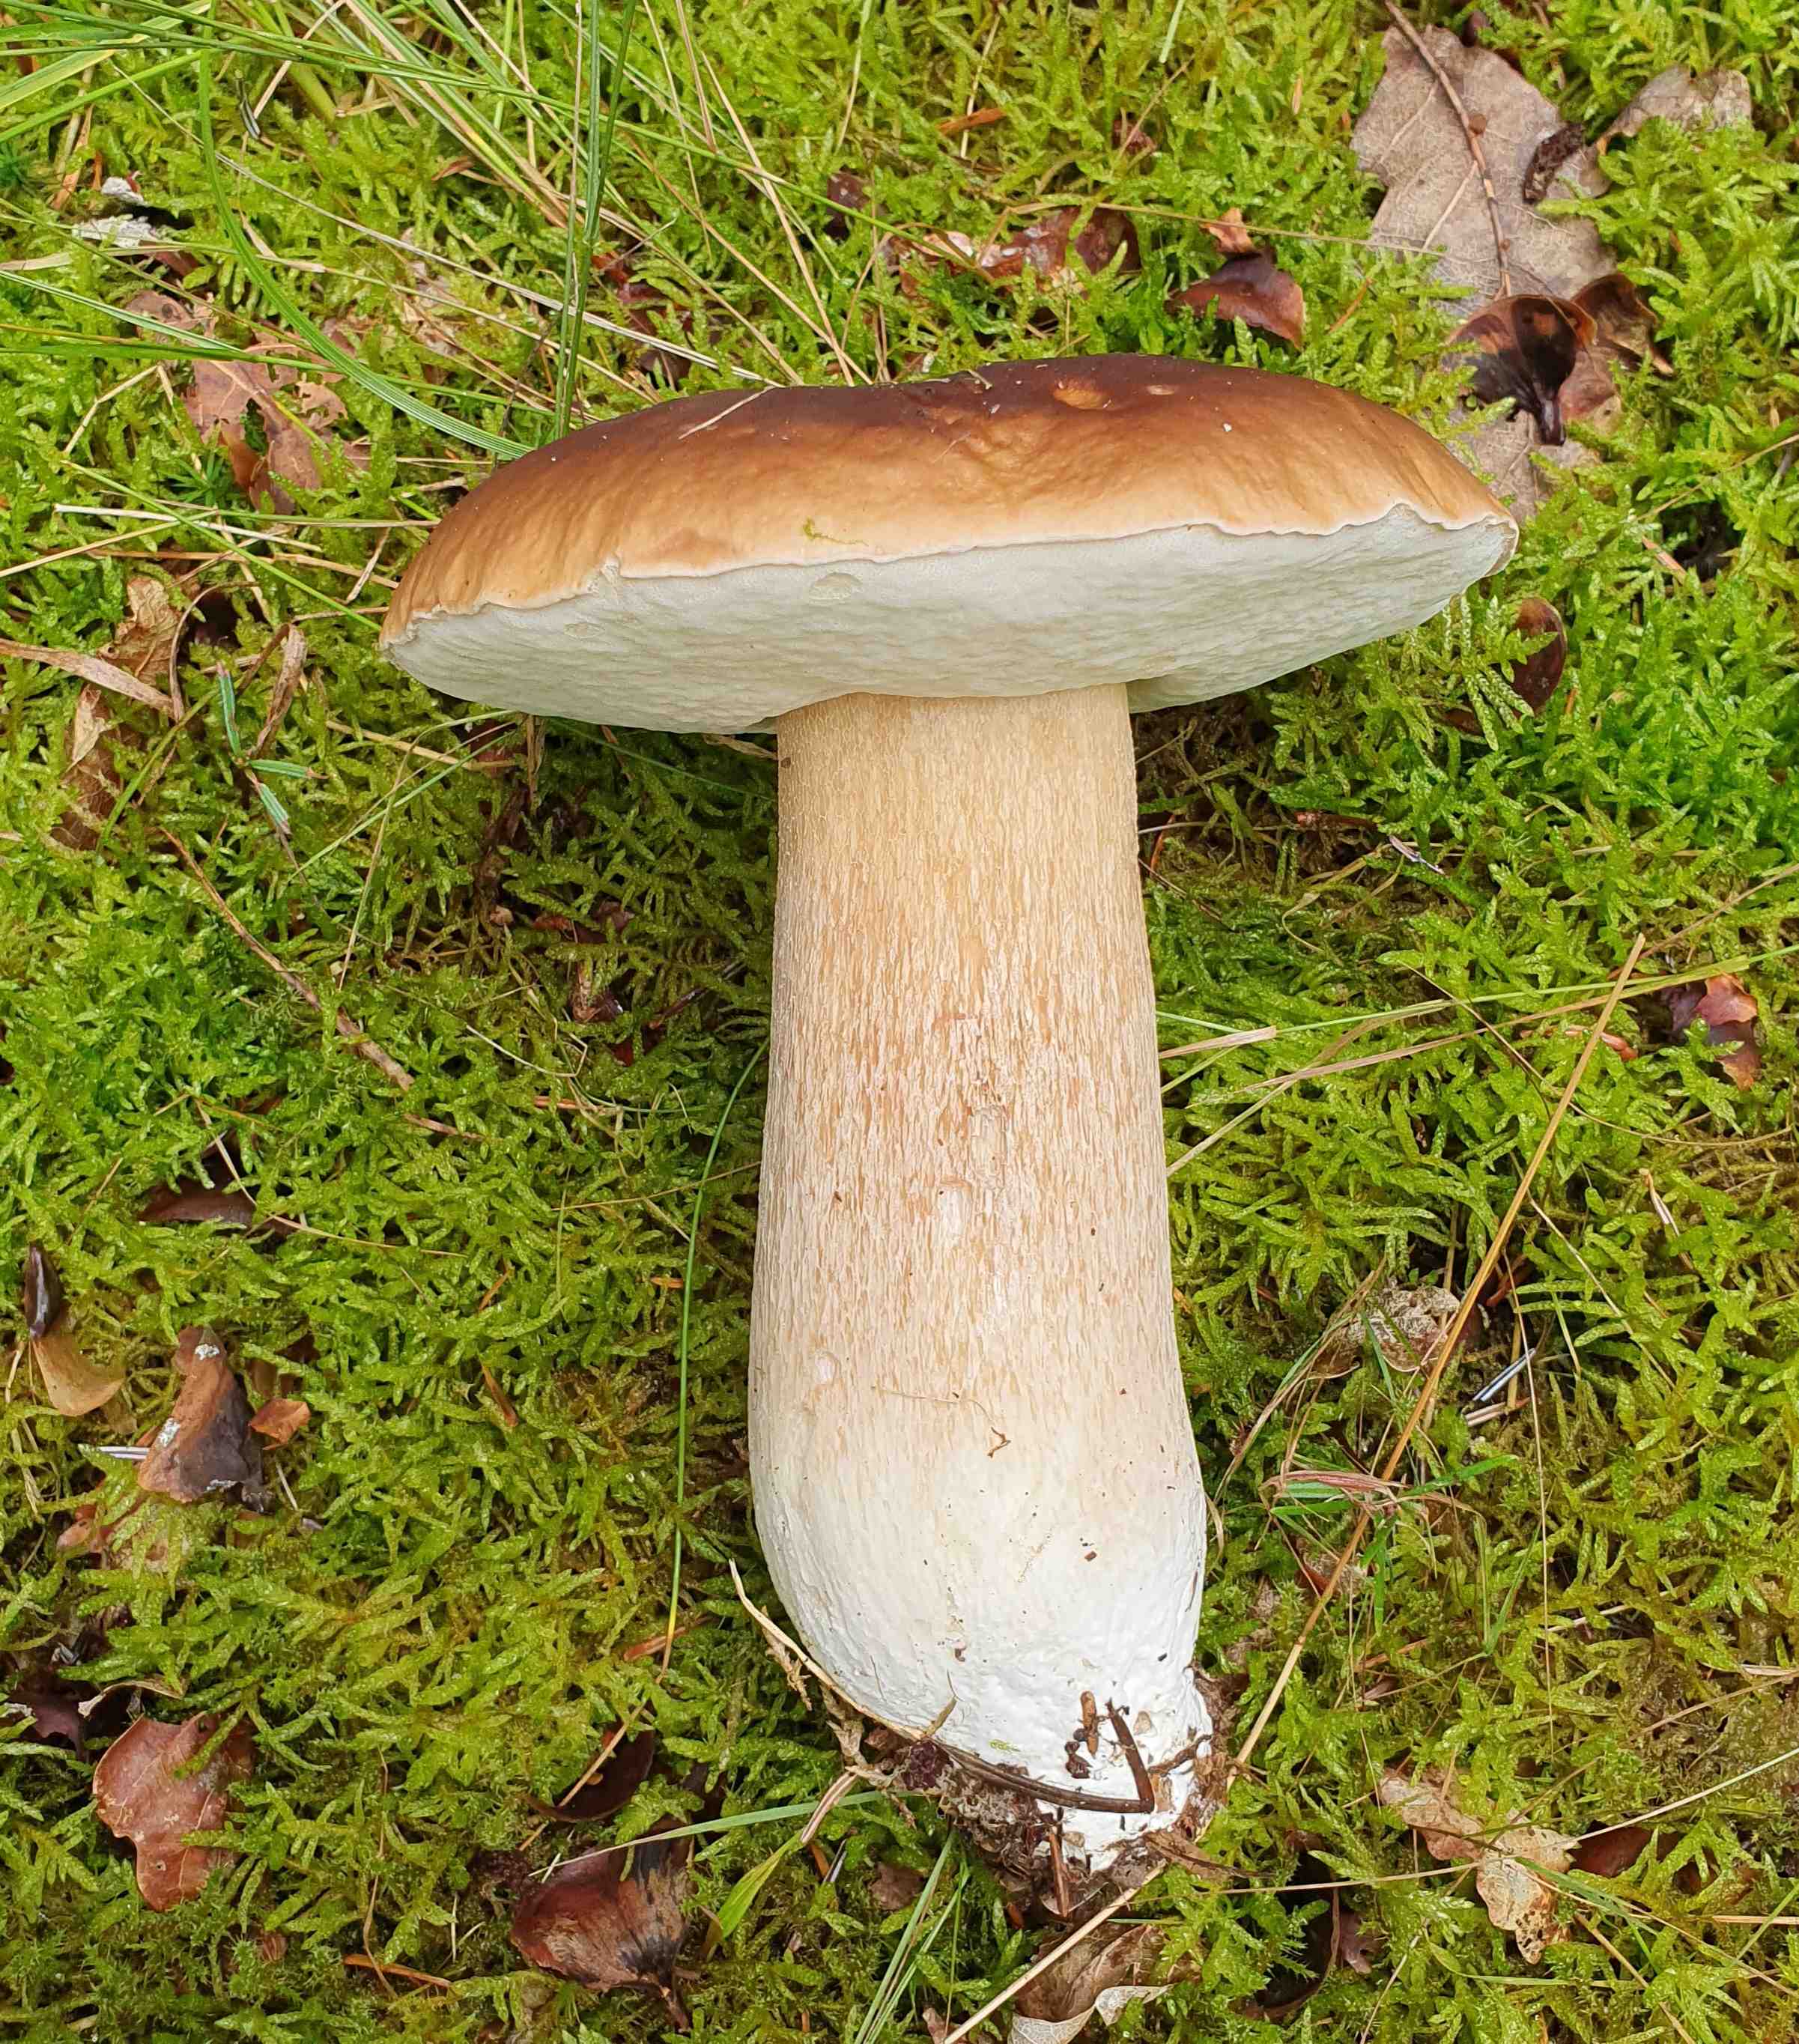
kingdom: Fungi
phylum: Basidiomycota
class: Agaricomycetes
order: Boletales
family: Boletaceae
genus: Boletus
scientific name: Boletus edulis
